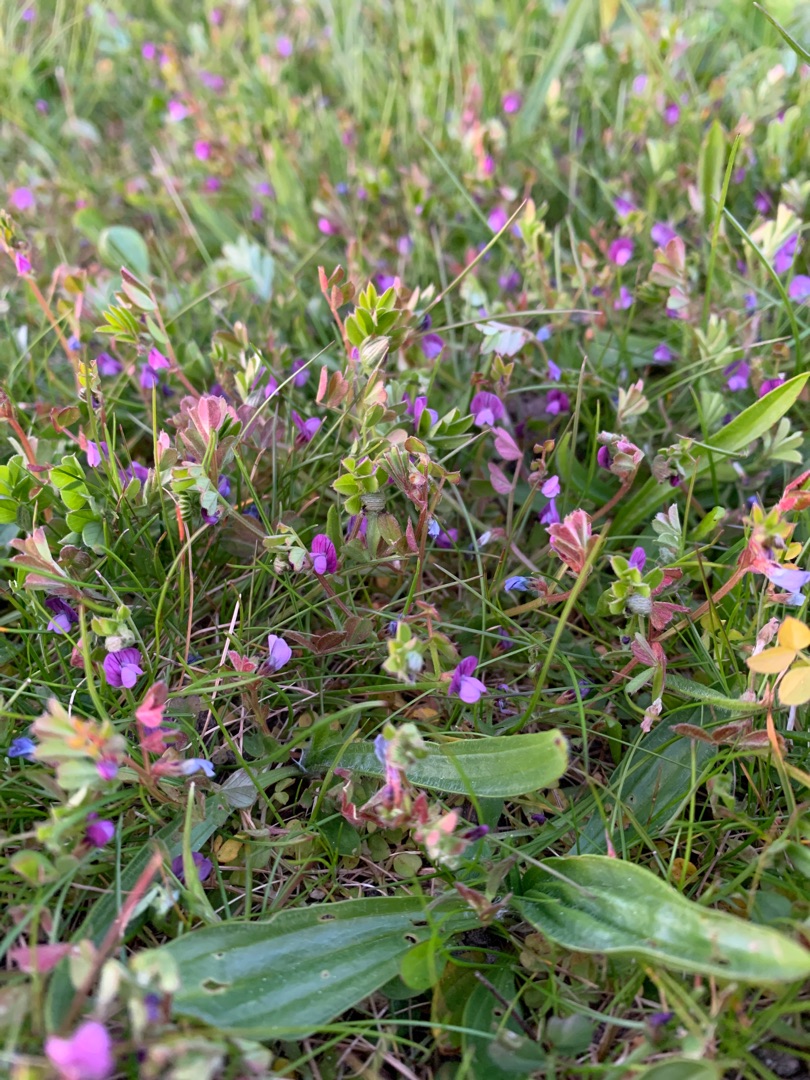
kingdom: Plantae
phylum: Tracheophyta
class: Magnoliopsida
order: Fabales
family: Fabaceae
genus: Vicia
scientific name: Vicia lathyroides
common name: Vår-vikke
